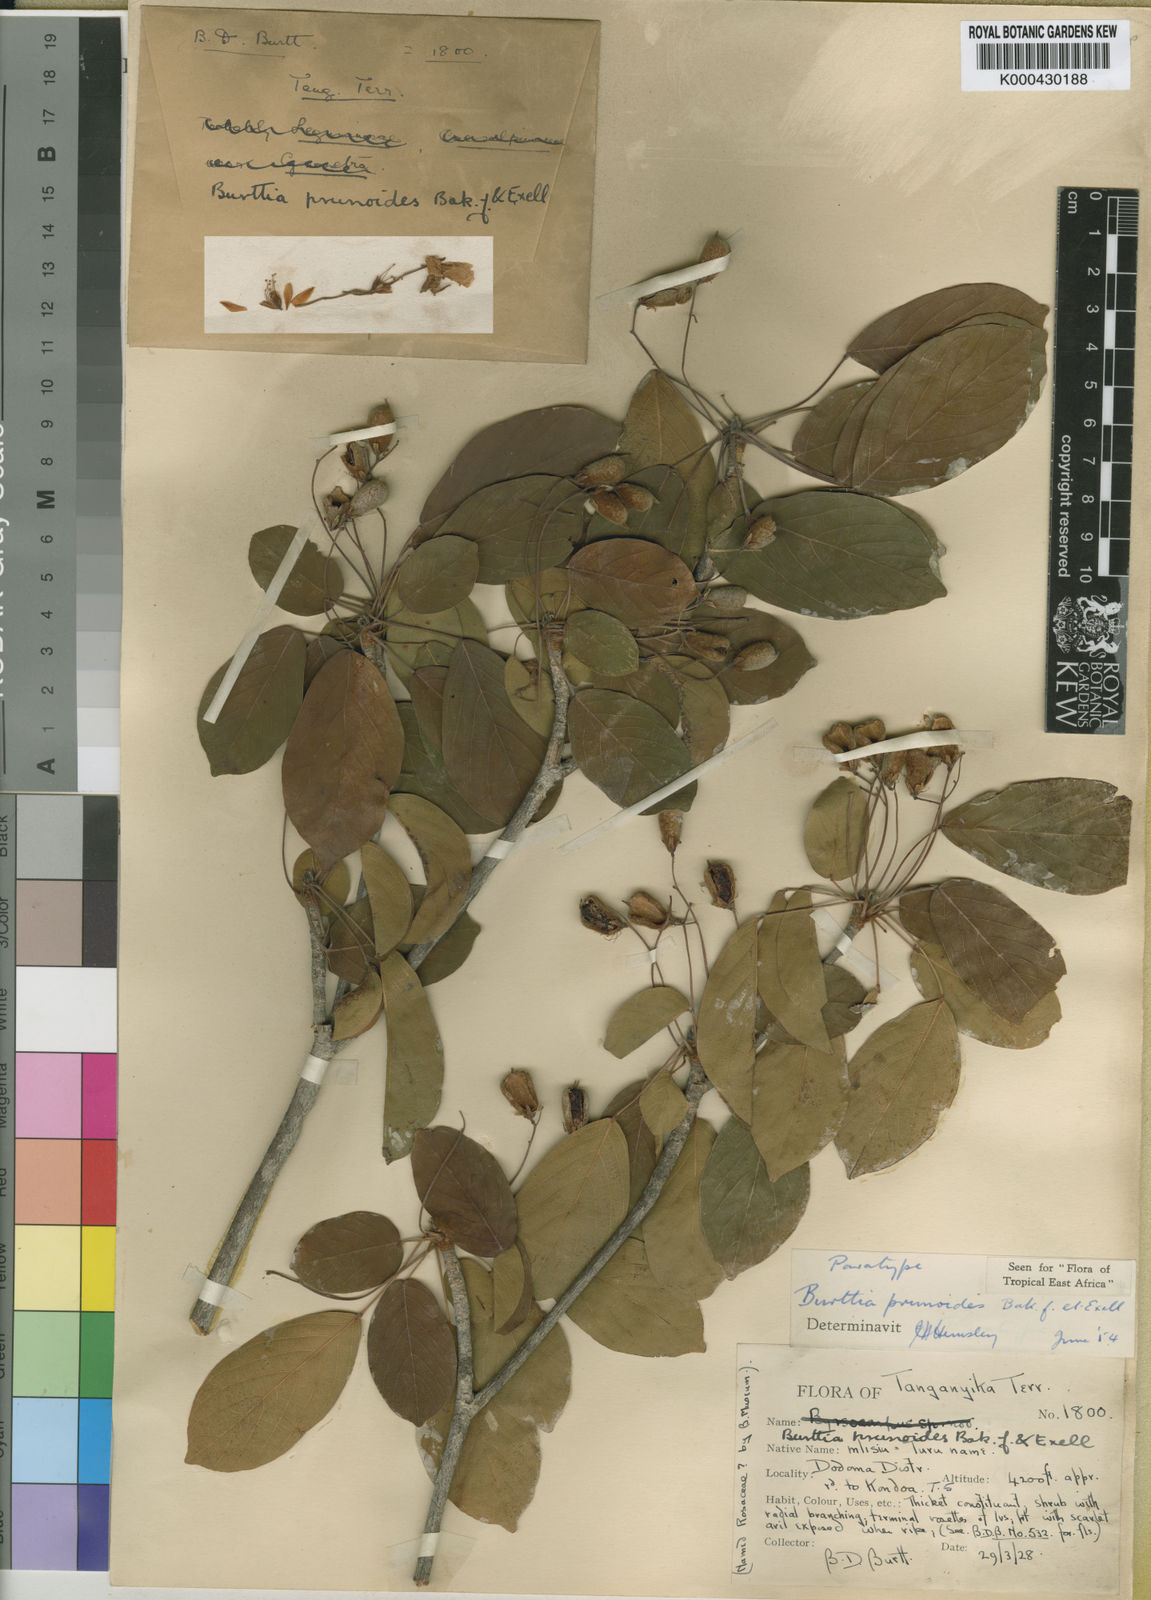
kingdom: Plantae
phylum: Tracheophyta
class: Magnoliopsida
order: Oxalidales
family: Connaraceae
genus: Burttia
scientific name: Burttia prunoides
